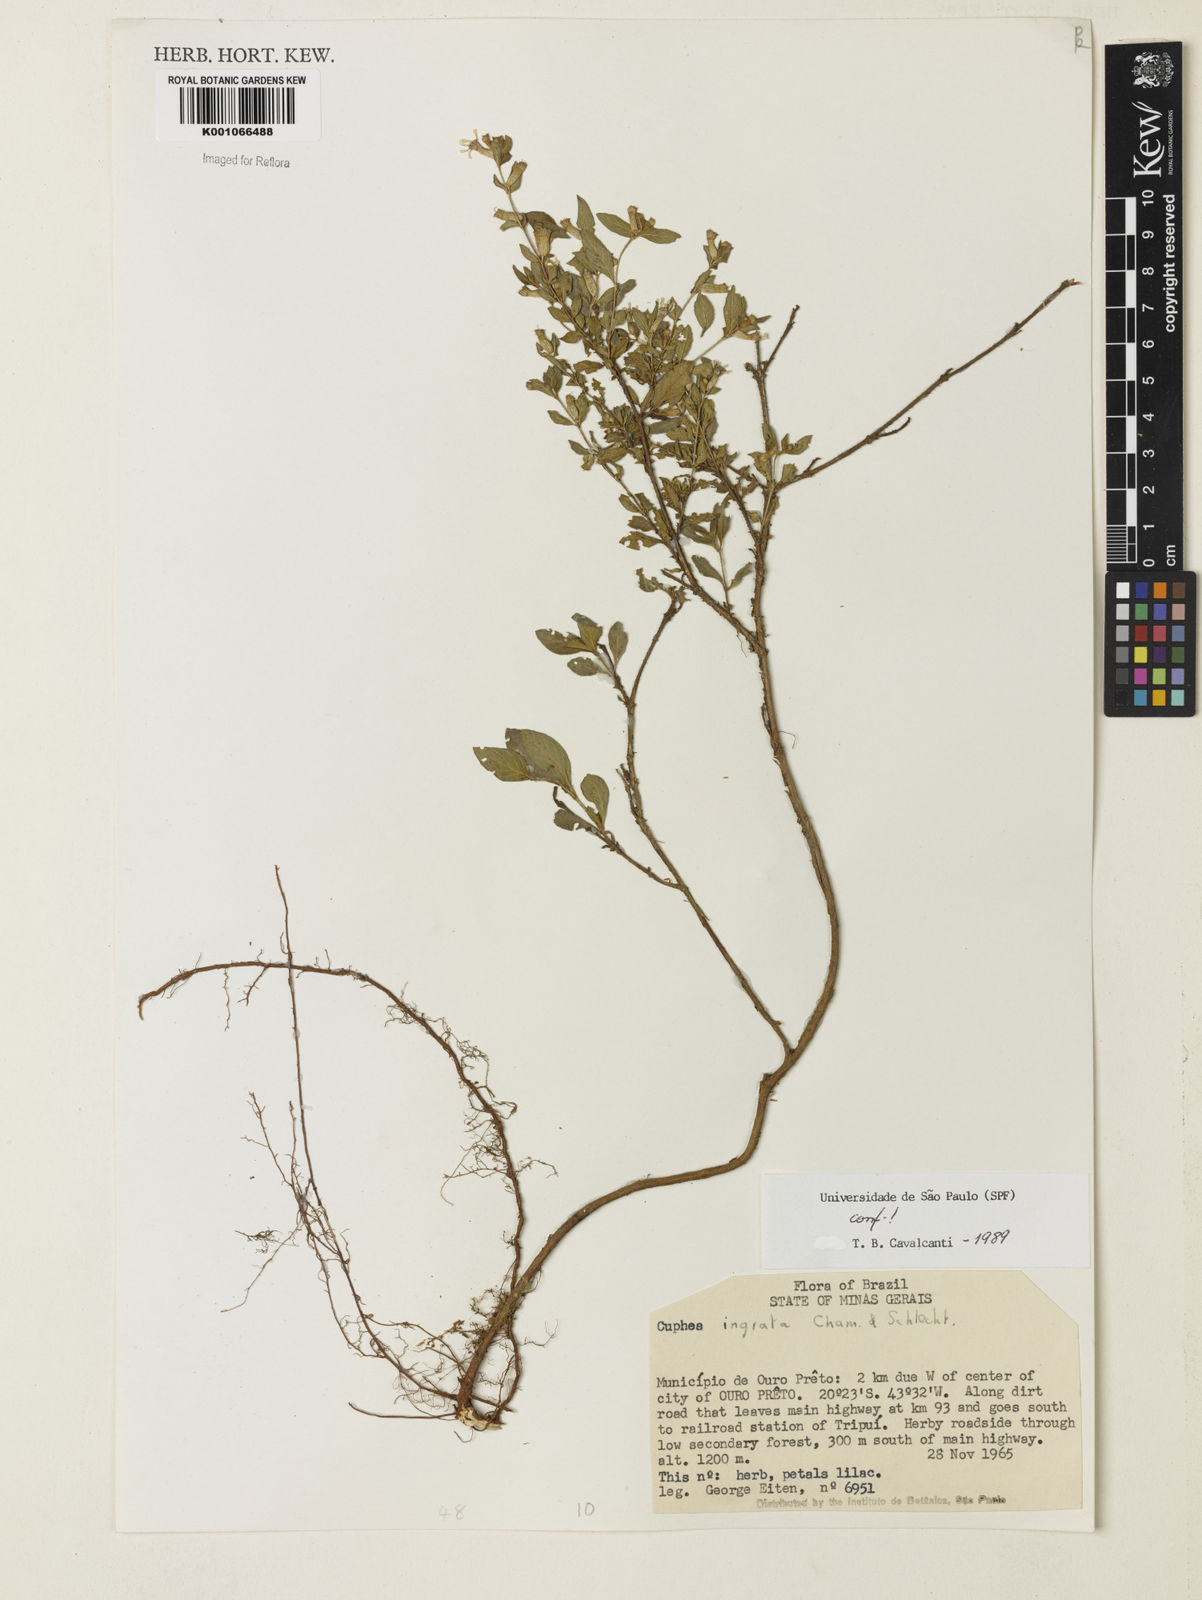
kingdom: Plantae
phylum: Tracheophyta
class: Magnoliopsida
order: Myrtales
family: Lythraceae
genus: Cuphea
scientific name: Cuphea ingrata
